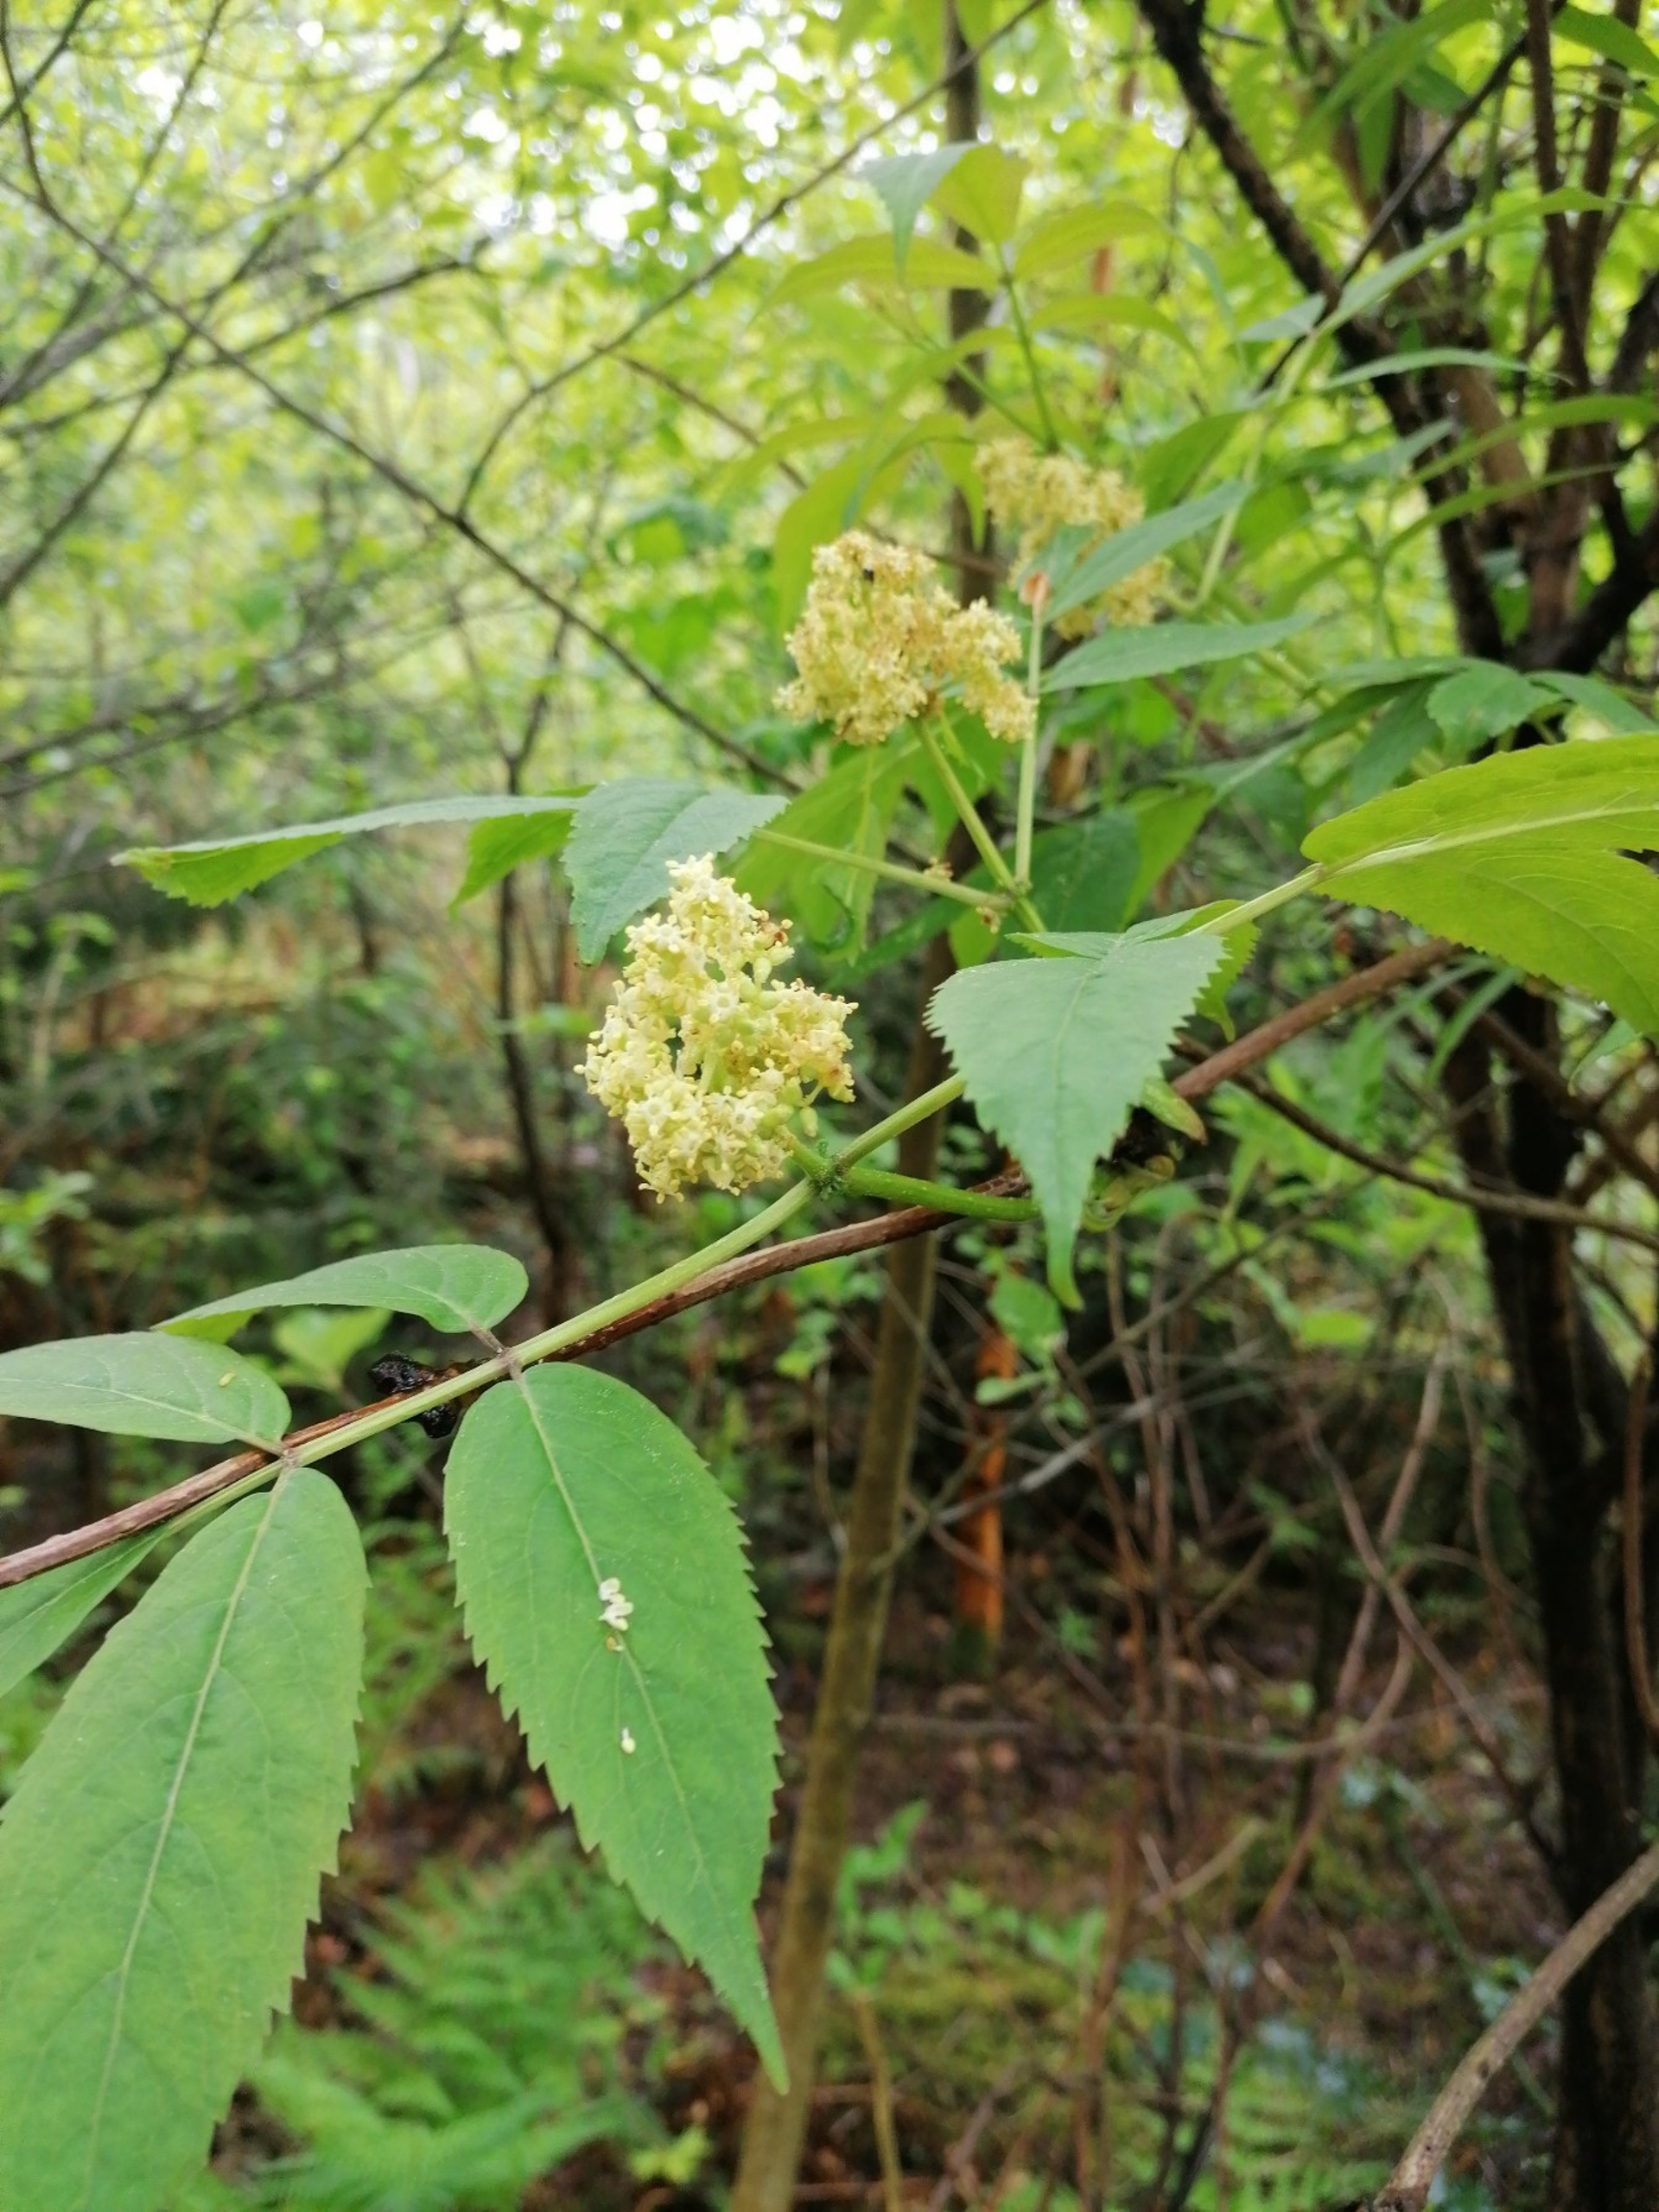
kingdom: Plantae
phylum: Tracheophyta
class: Magnoliopsida
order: Dipsacales
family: Viburnaceae
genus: Sambucus
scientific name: Sambucus racemosa
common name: Drue-hyld
